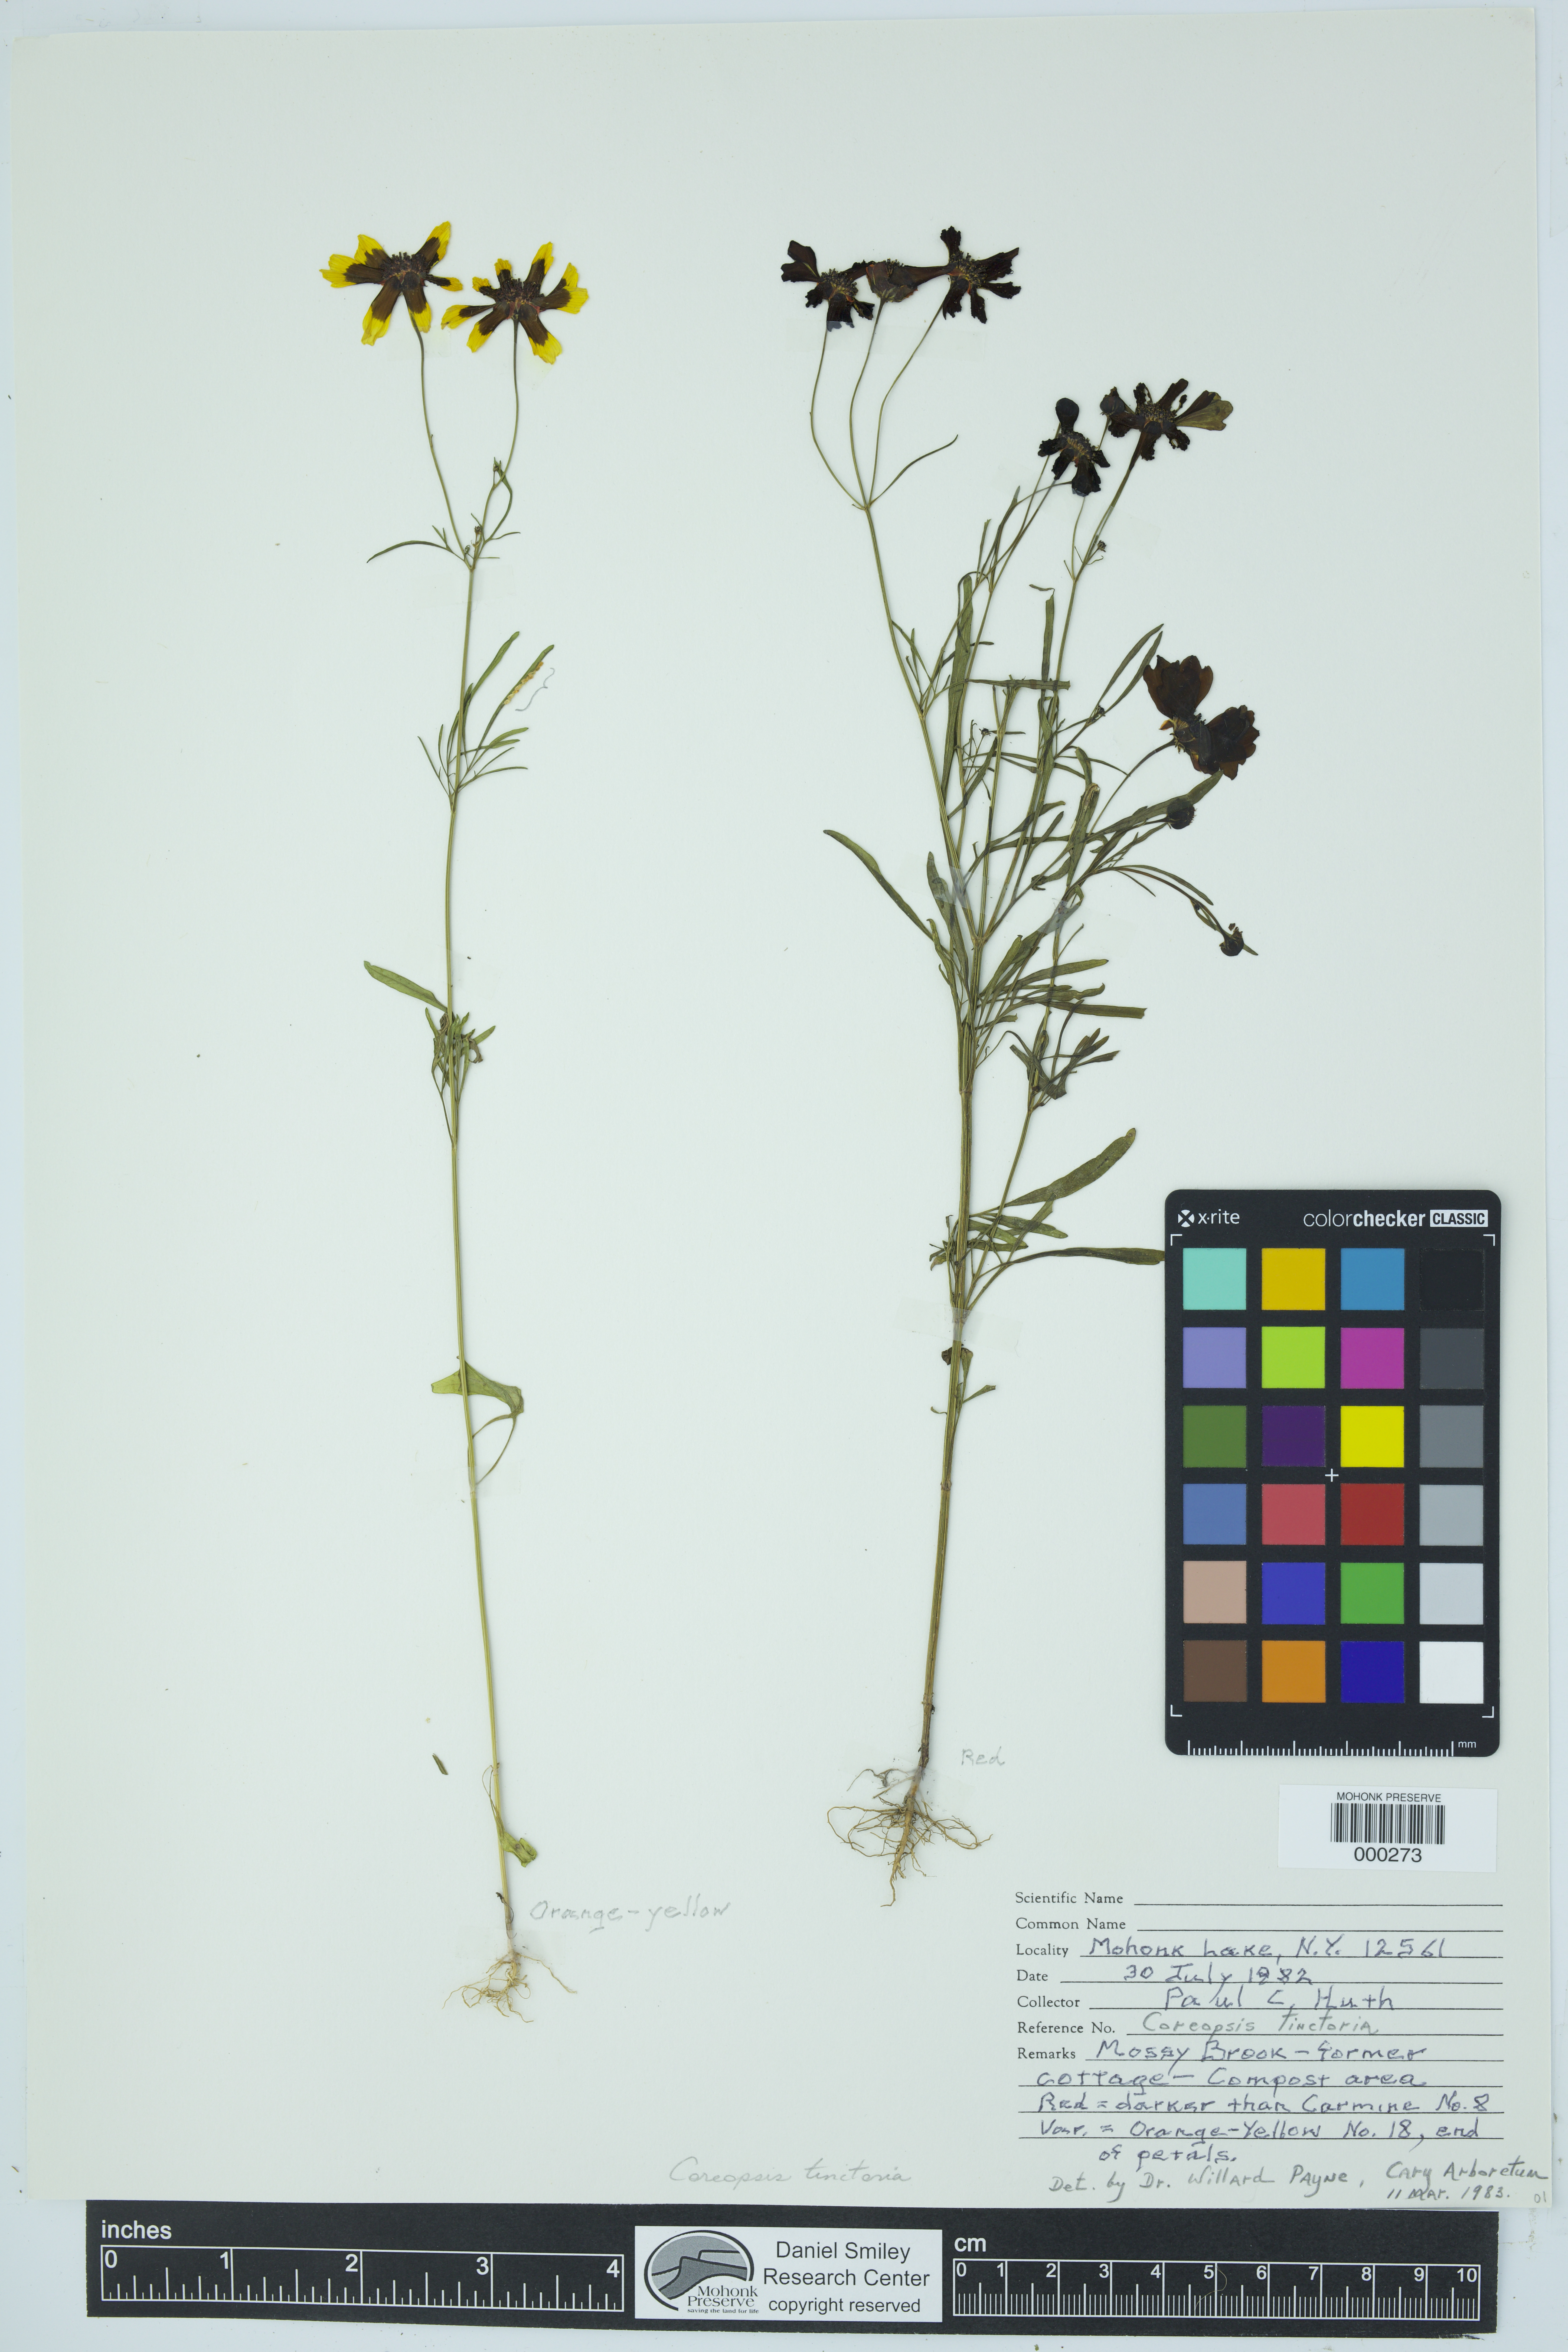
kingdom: Plantae
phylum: Tracheophyta
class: Magnoliopsida
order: Asterales
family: Asteraceae
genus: Coreopsis
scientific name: Coreopsis tinctoria
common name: Garden tickseed
